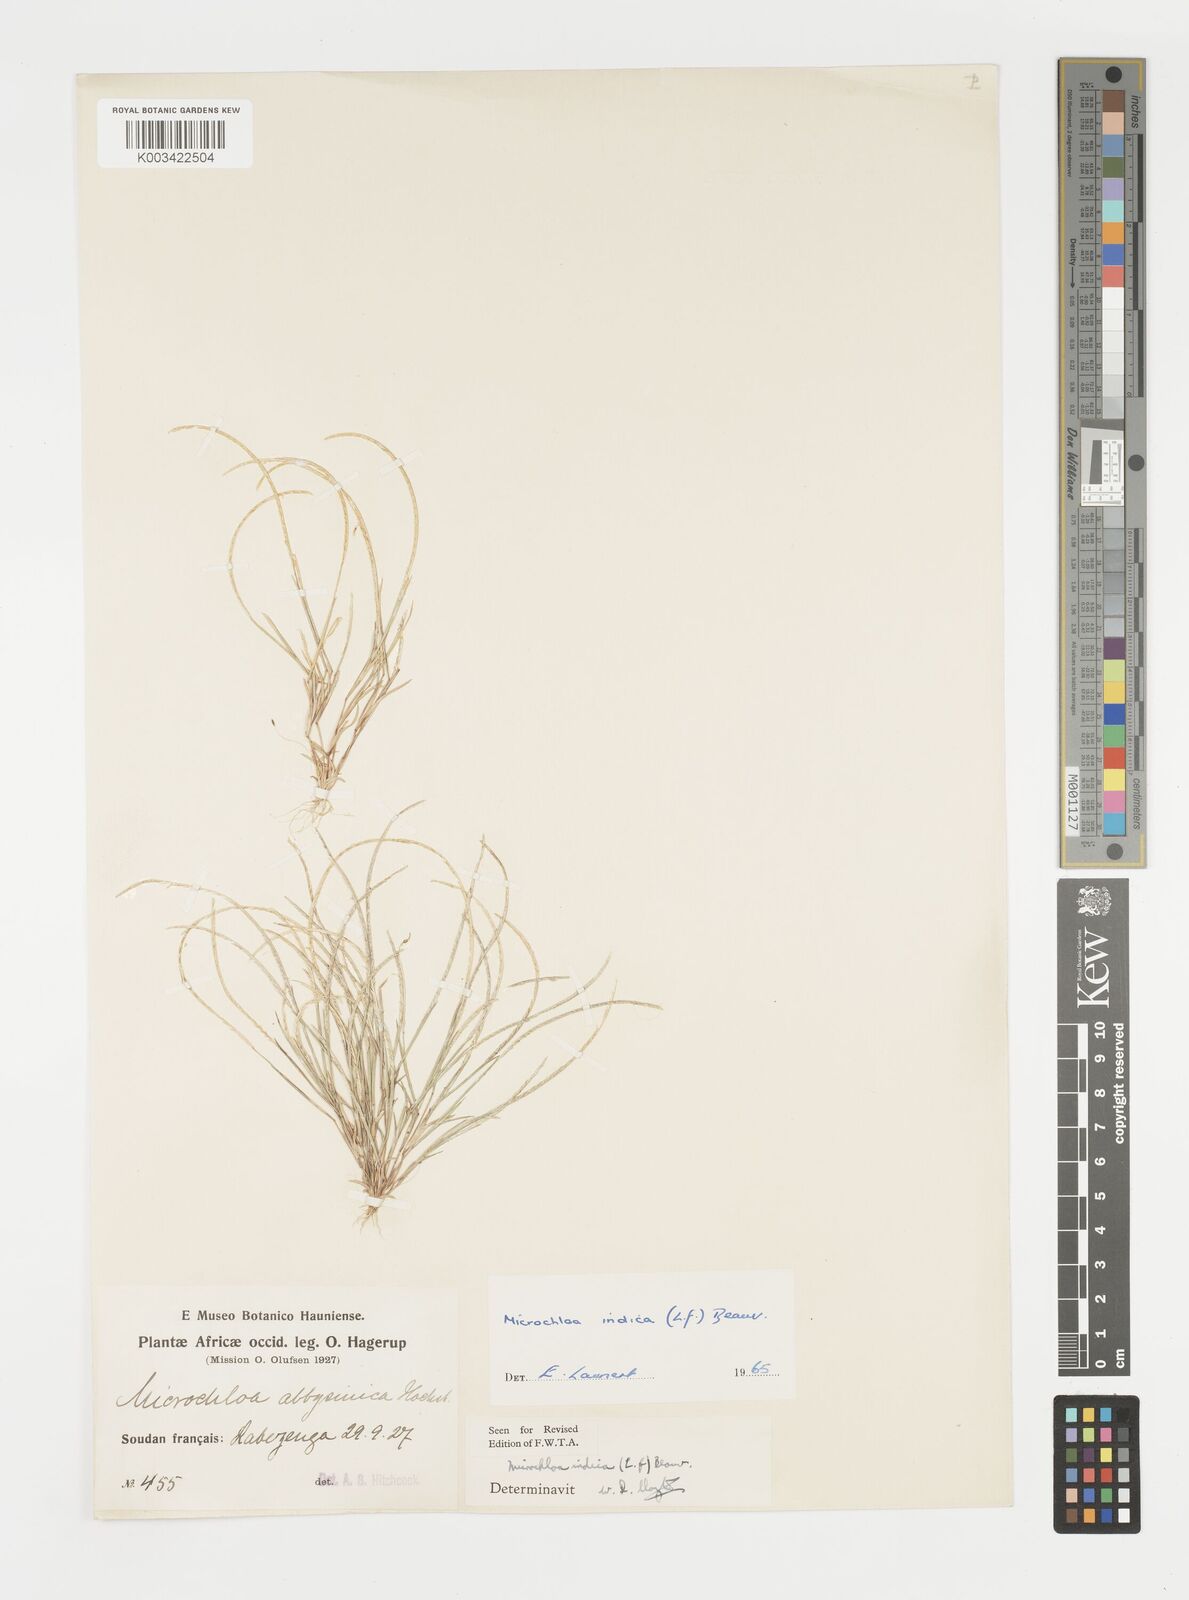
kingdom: Plantae
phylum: Tracheophyta
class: Liliopsida
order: Poales
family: Poaceae
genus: Microchloa
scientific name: Microchloa indica
